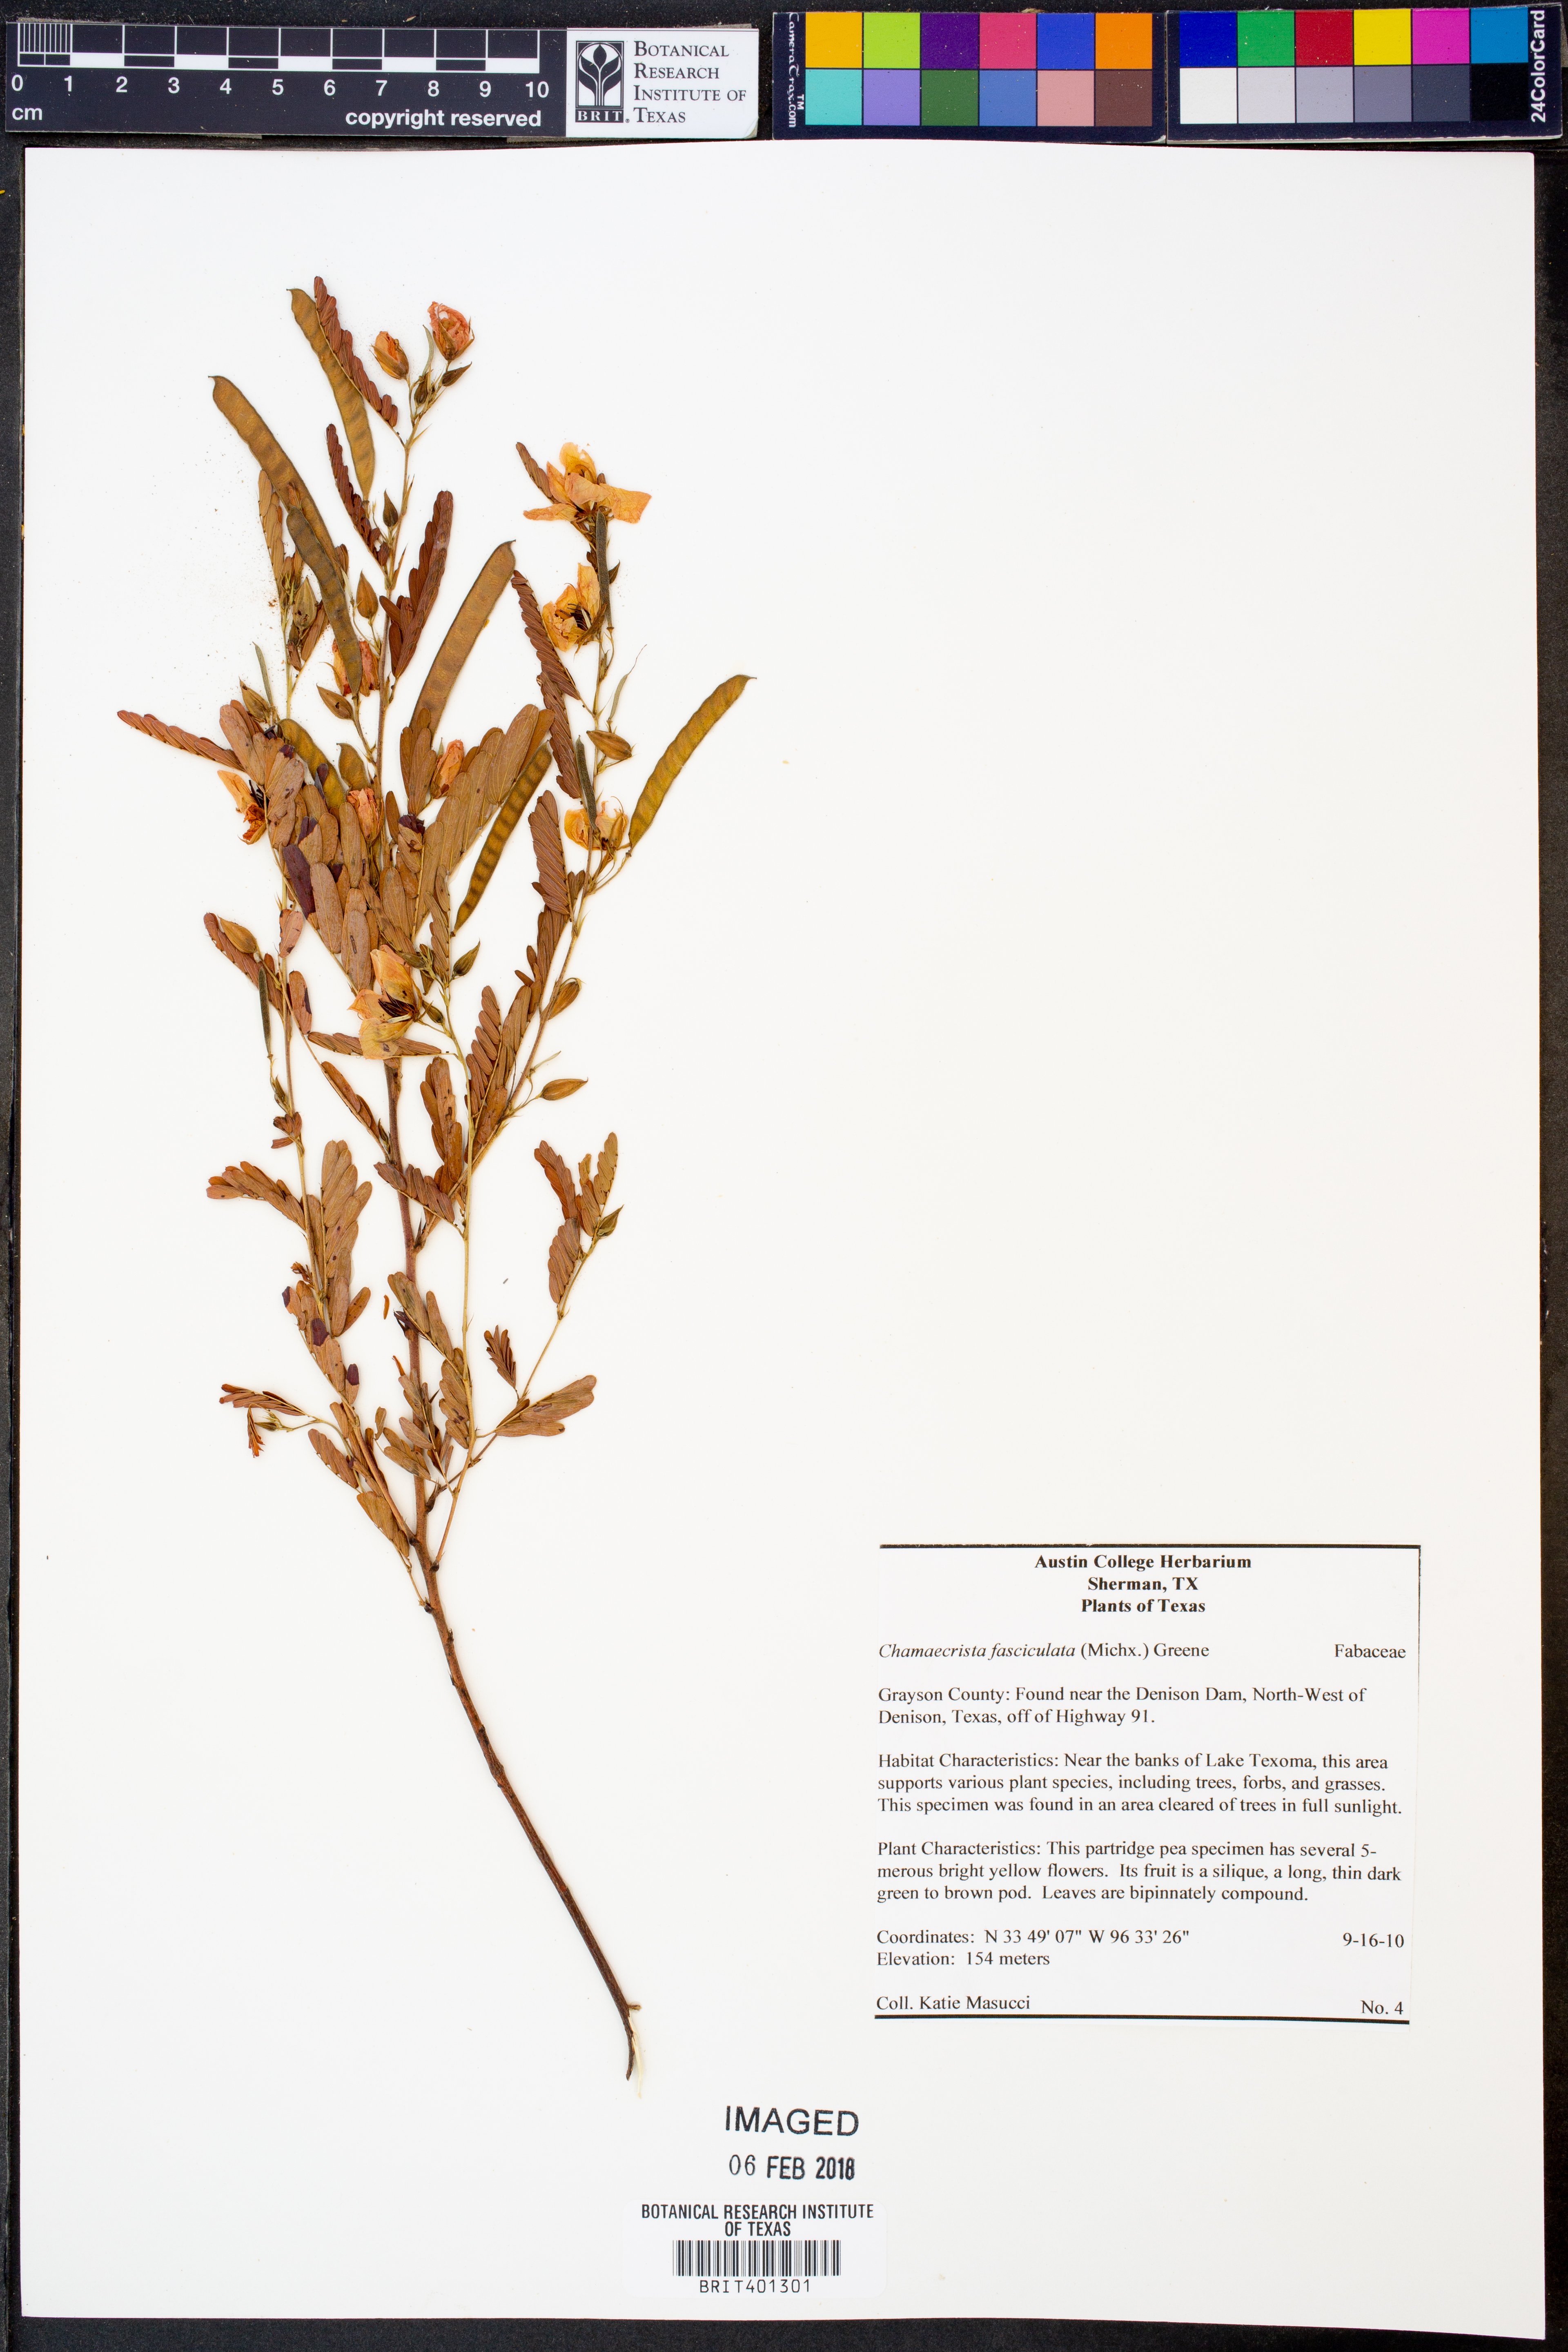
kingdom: Plantae
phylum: Tracheophyta
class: Magnoliopsida
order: Fabales
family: Fabaceae
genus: Chamaecrista
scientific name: Chamaecrista fasciculata
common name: Golden cassia
